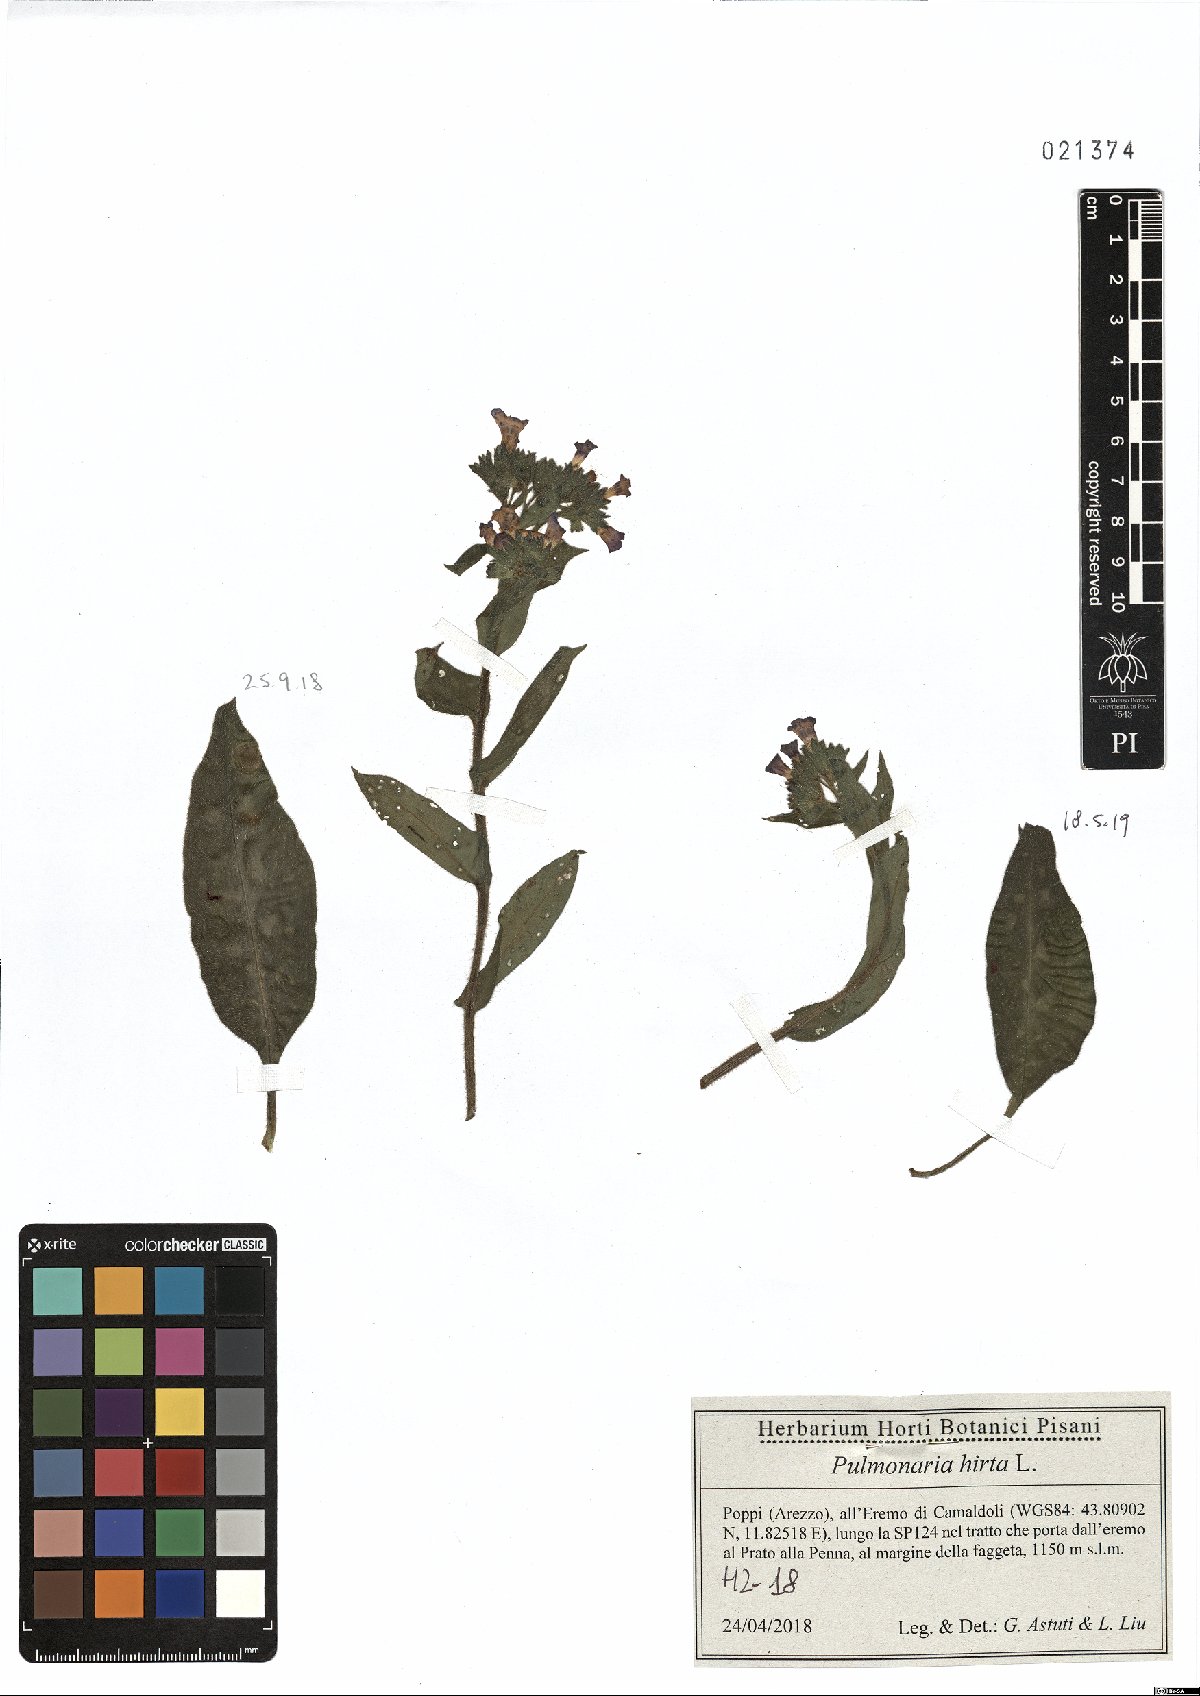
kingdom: Plantae
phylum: Tracheophyta
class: Magnoliopsida
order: Boraginales
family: Boraginaceae
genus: Pulmonaria
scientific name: Pulmonaria hirta
